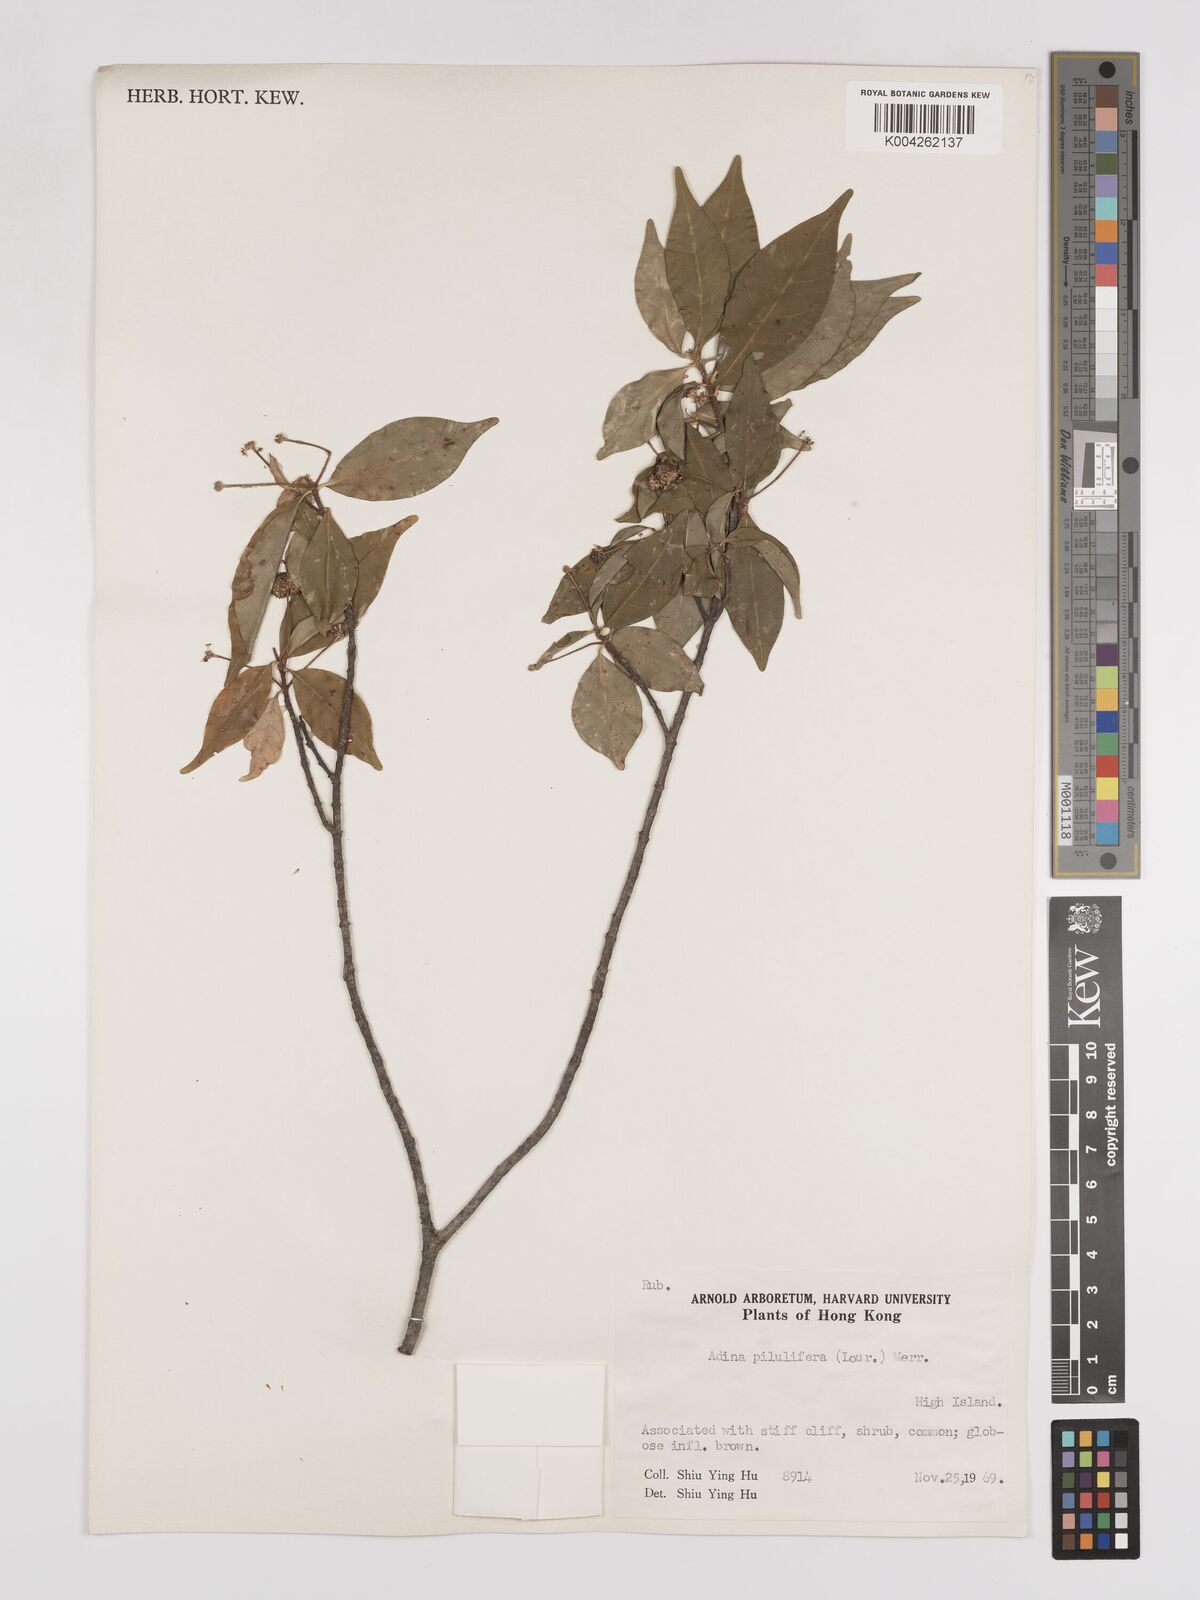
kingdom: Plantae
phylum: Tracheophyta
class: Magnoliopsida
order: Gentianales
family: Rubiaceae
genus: Adina
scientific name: Adina pilulifera
